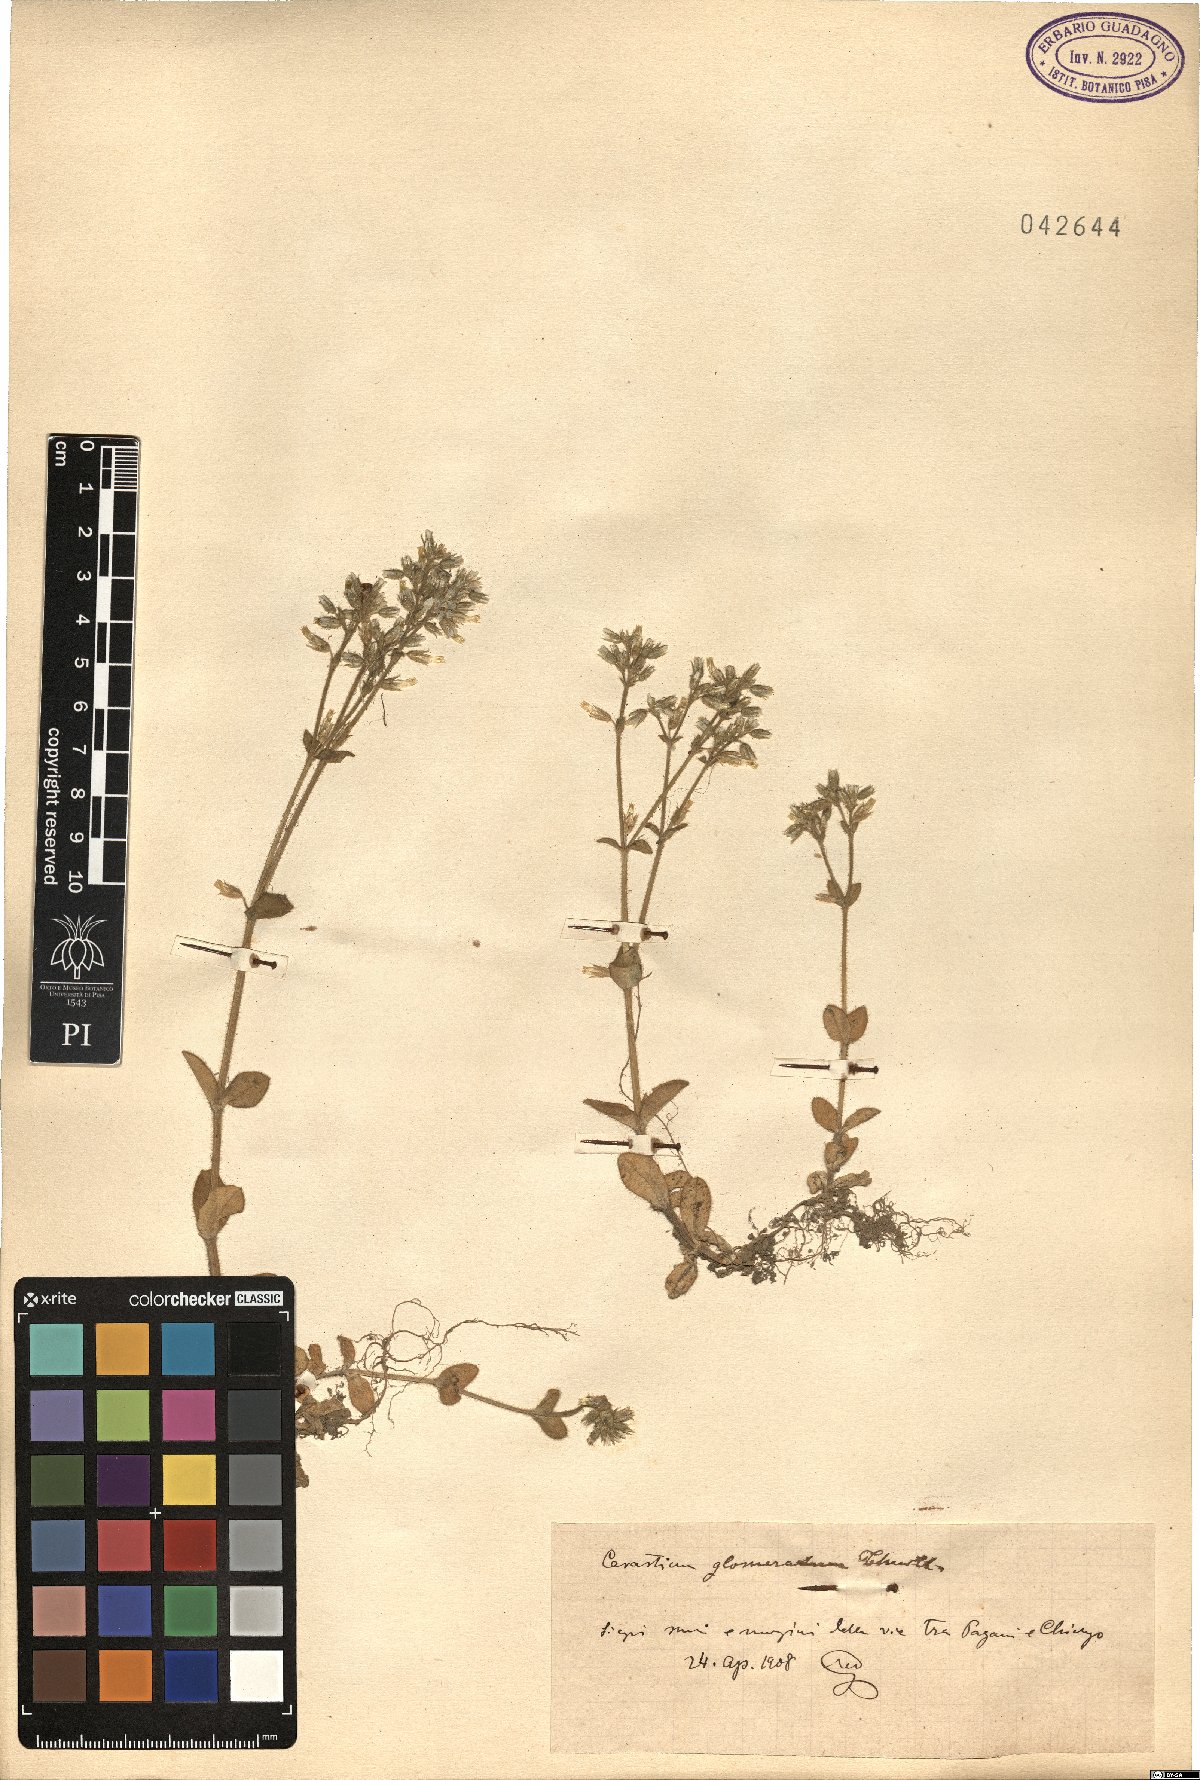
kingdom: Plantae
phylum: Tracheophyta
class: Magnoliopsida
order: Caryophyllales
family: Caryophyllaceae
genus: Cerastium
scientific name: Cerastium glomeratum
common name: Sticky chickweed
